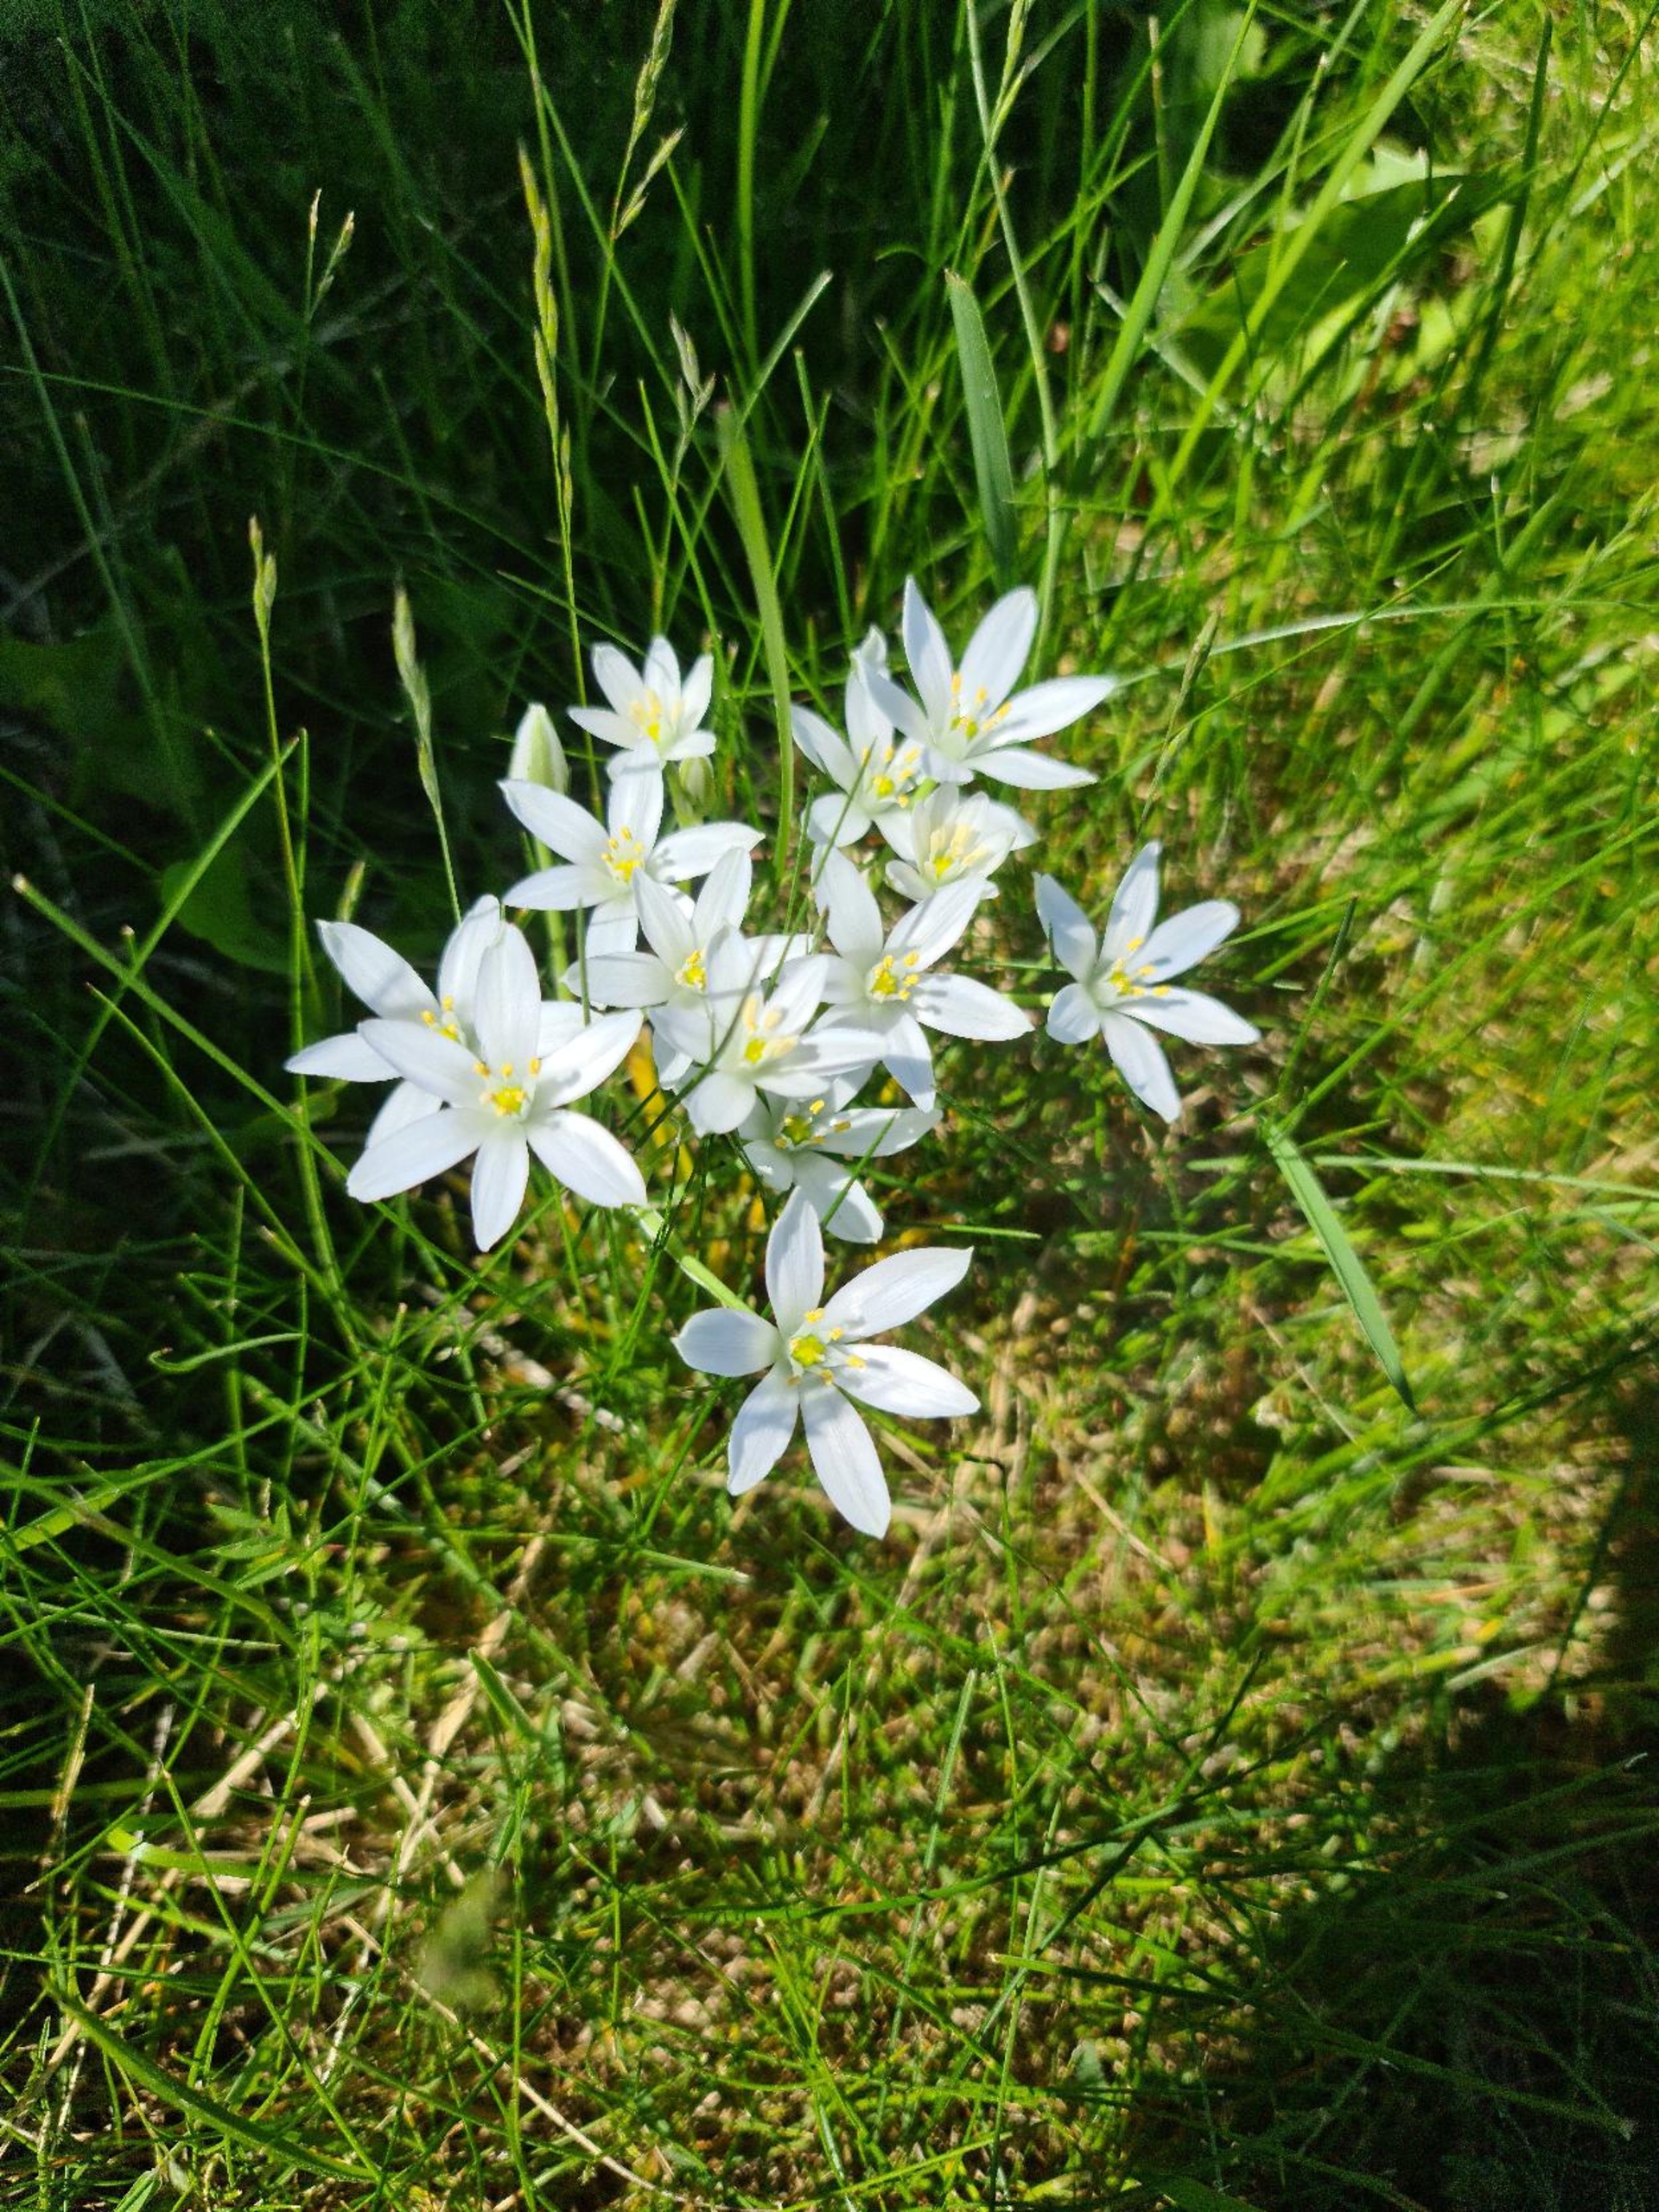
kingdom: Plantae
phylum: Tracheophyta
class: Liliopsida
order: Asparagales
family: Asparagaceae
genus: Ornithogalum
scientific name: Ornithogalum umbellatum
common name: Kost-fuglemælk
